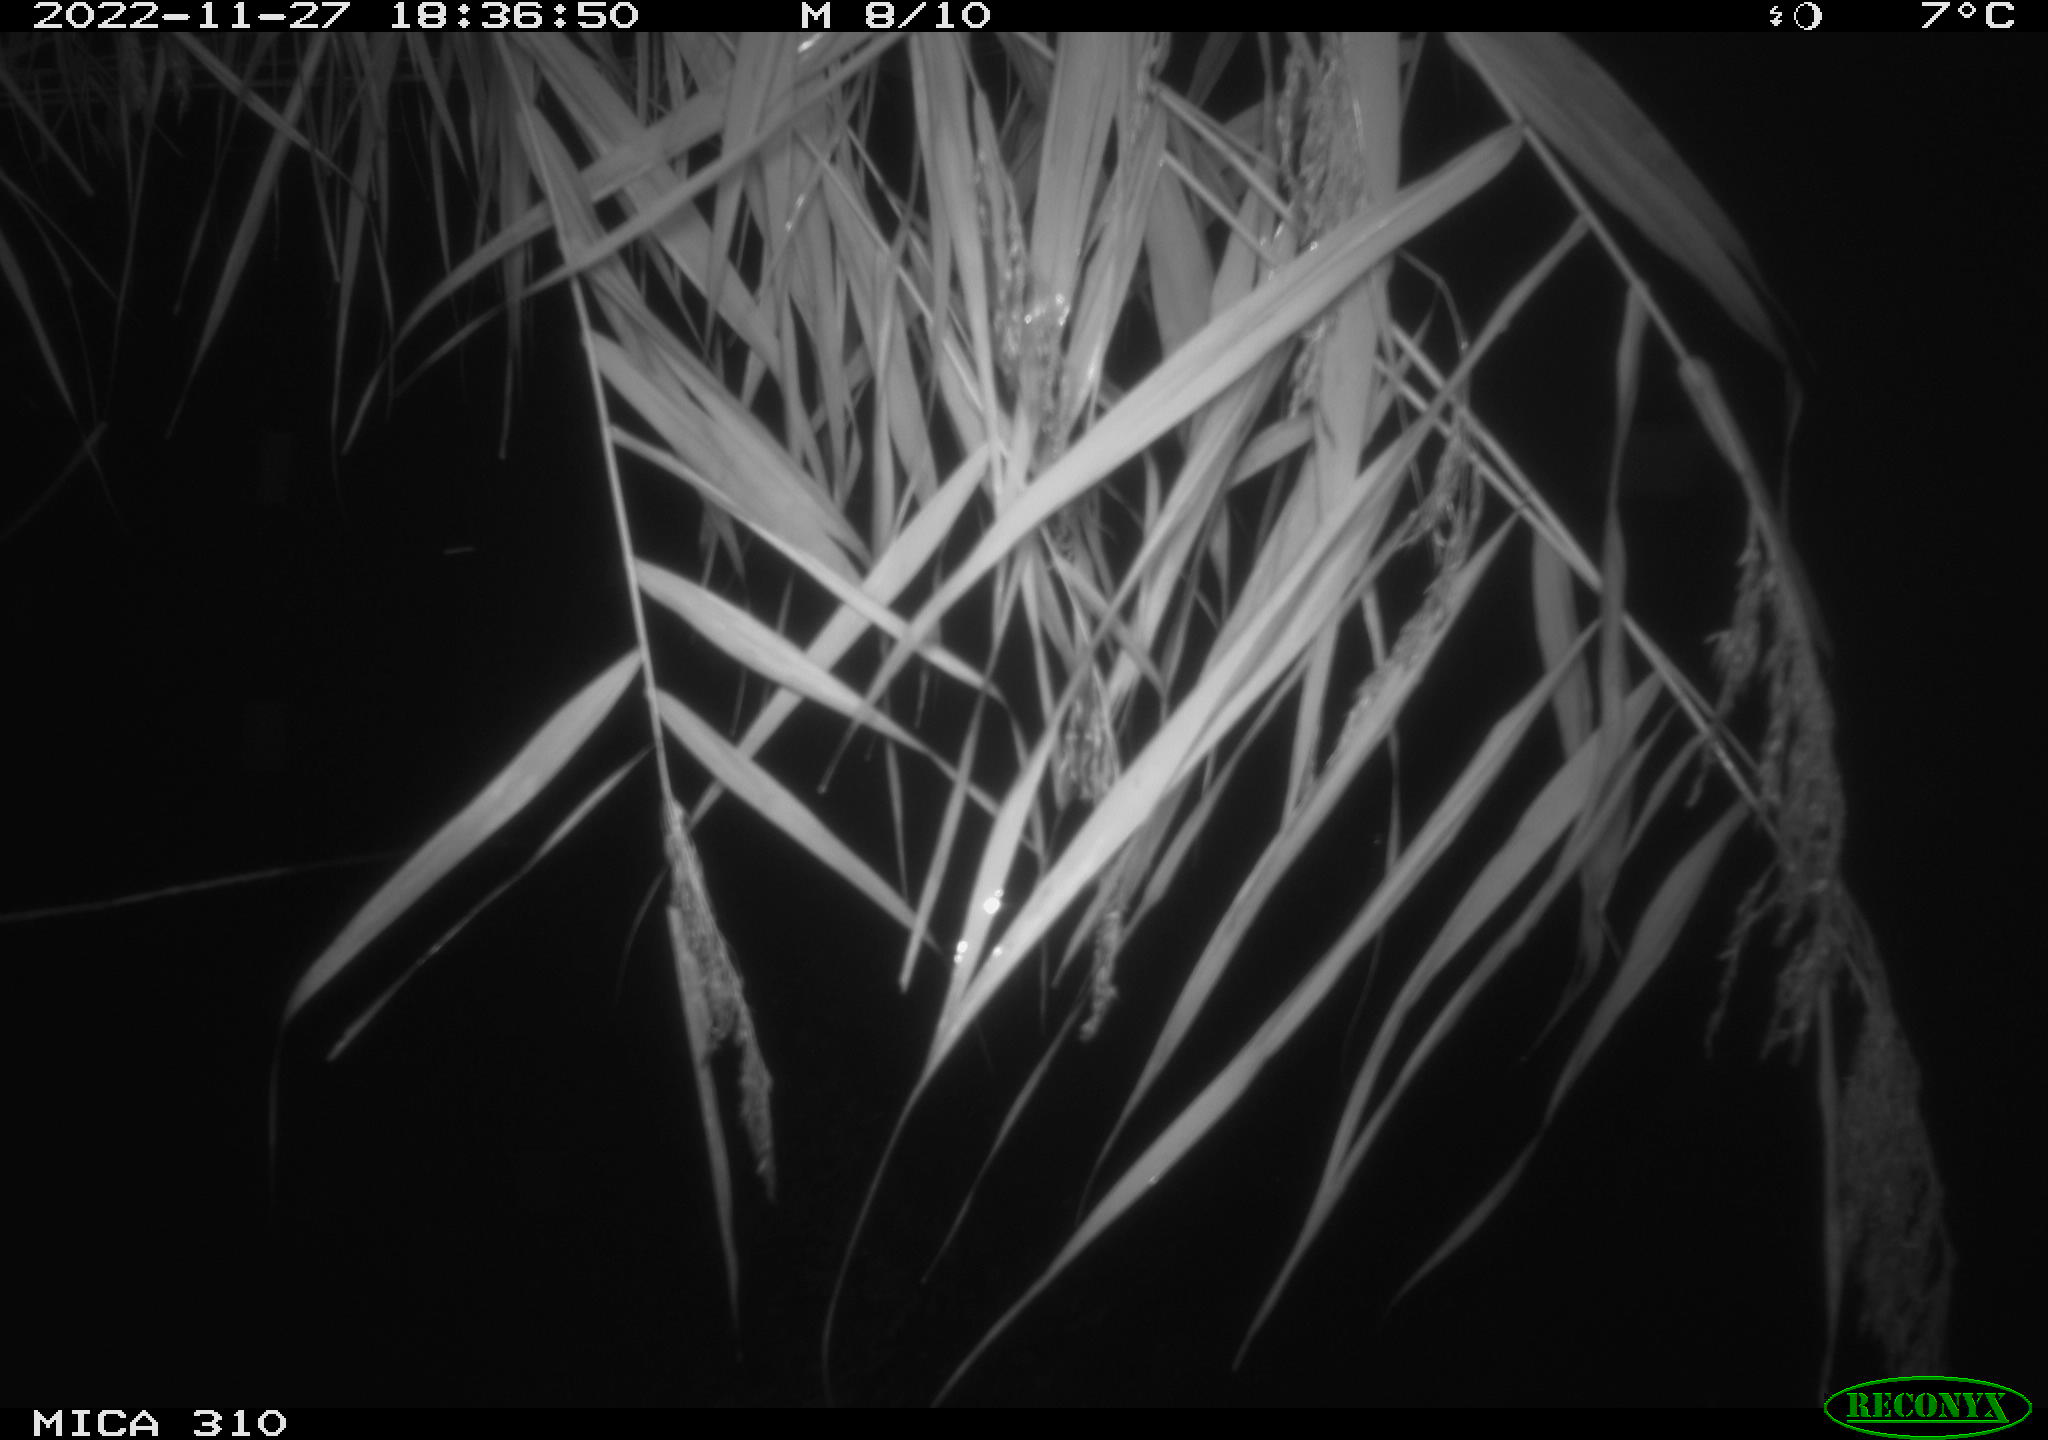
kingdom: Animalia
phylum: Chordata
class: Mammalia
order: Rodentia
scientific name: Rodentia
